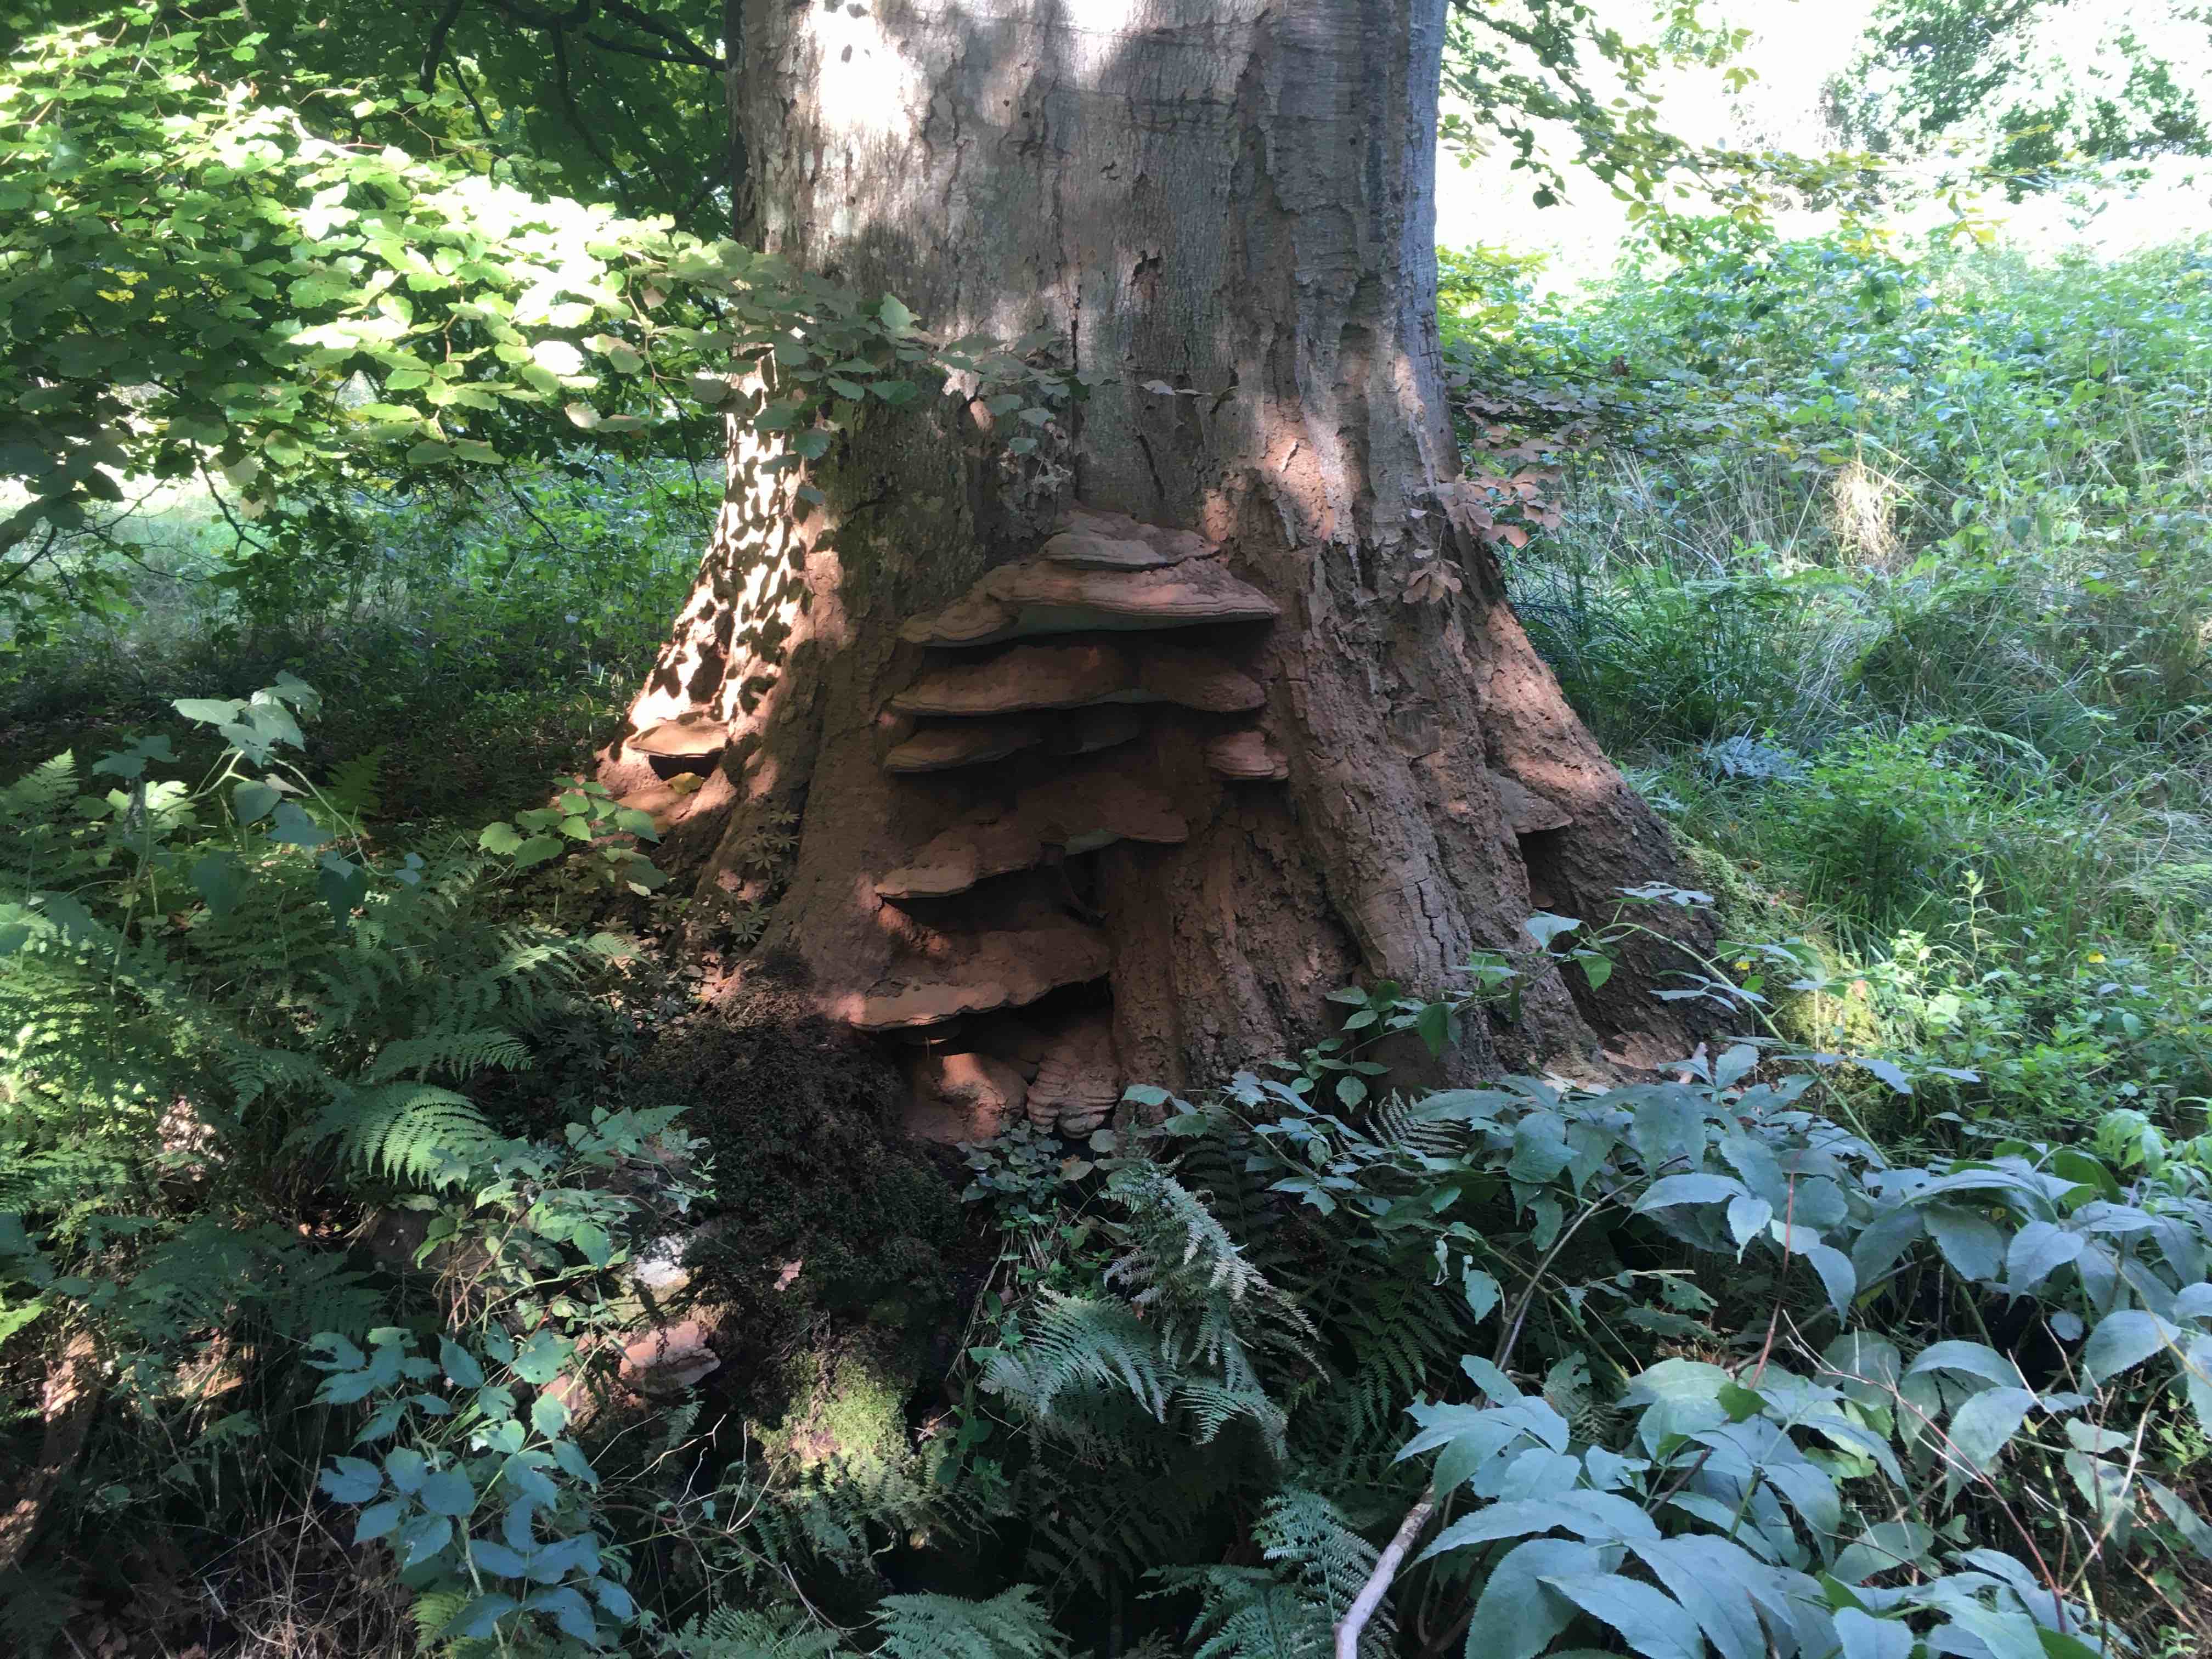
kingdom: Fungi
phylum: Basidiomycota
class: Agaricomycetes
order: Polyporales
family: Polyporaceae
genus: Ganoderma
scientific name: Ganoderma adspersum
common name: grov lakporesvamp
